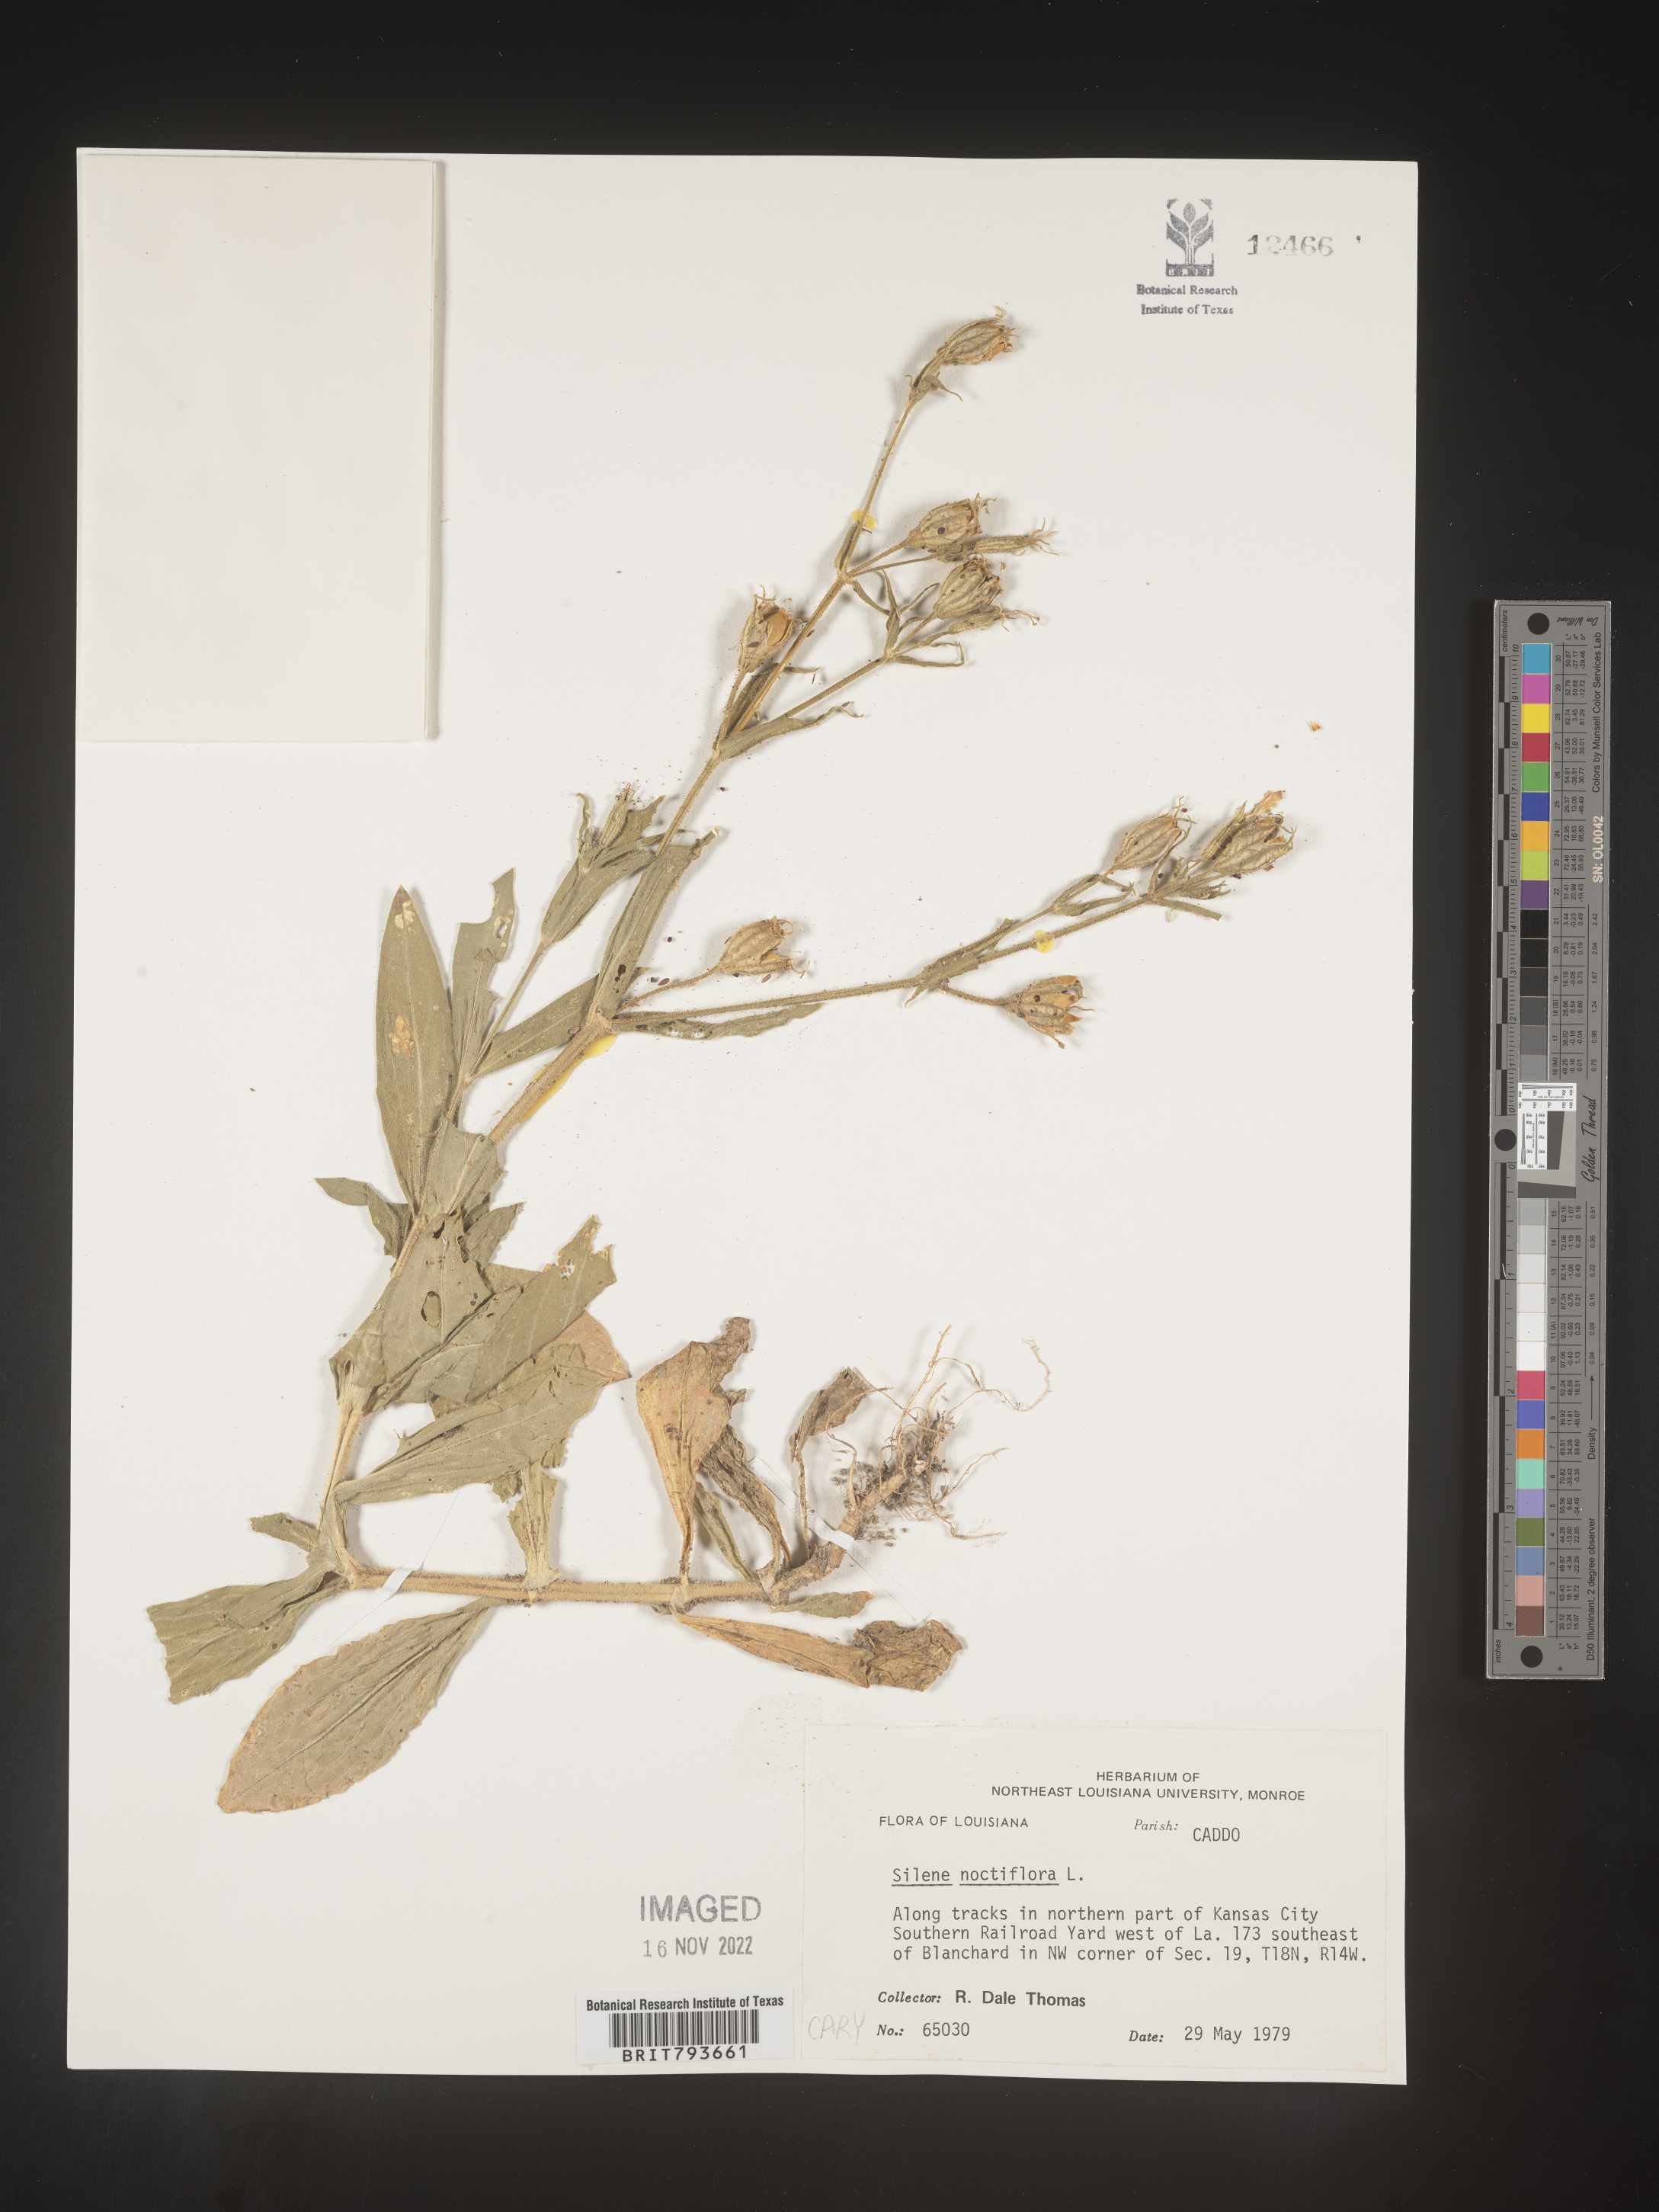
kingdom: Plantae
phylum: Tracheophyta
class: Magnoliopsida
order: Caryophyllales
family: Caryophyllaceae
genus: Silene
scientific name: Silene noctiflora
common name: Night-flowering catchfly
